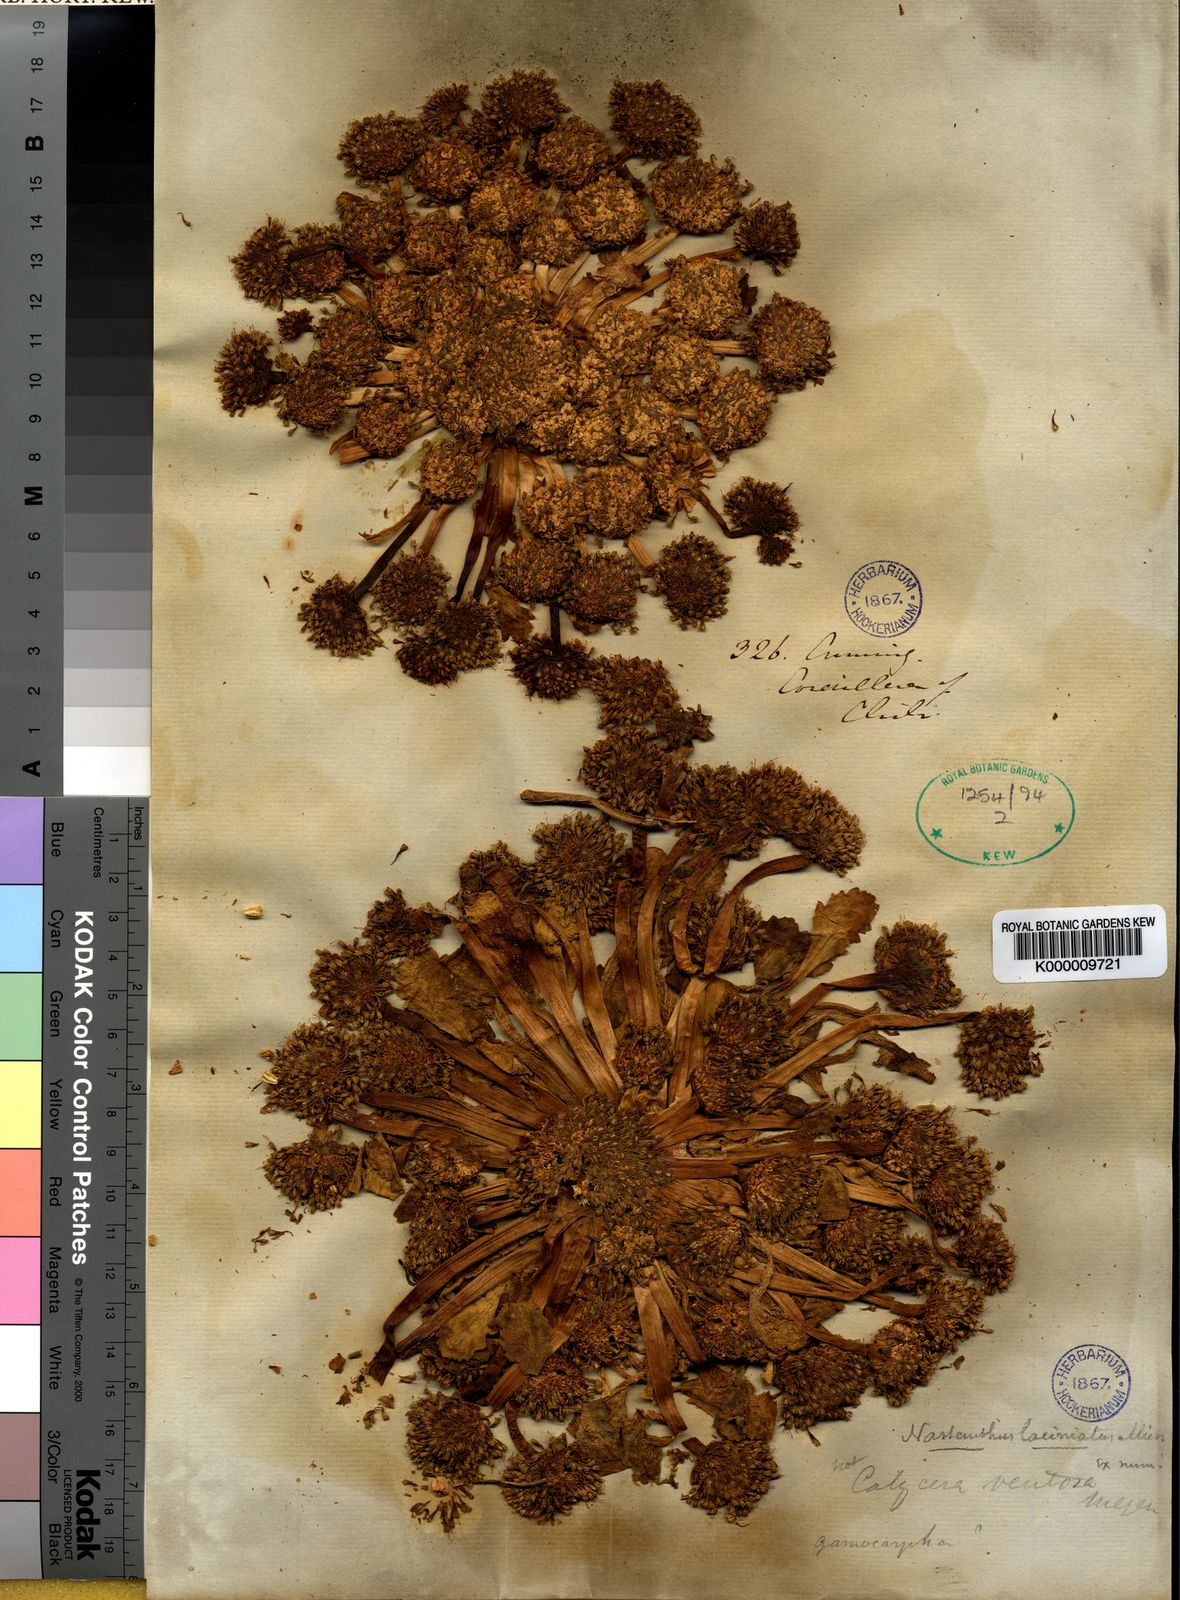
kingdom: Plantae
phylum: Tracheophyta
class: Magnoliopsida
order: Asterales
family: Calyceraceae
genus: Boopis
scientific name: Boopis
